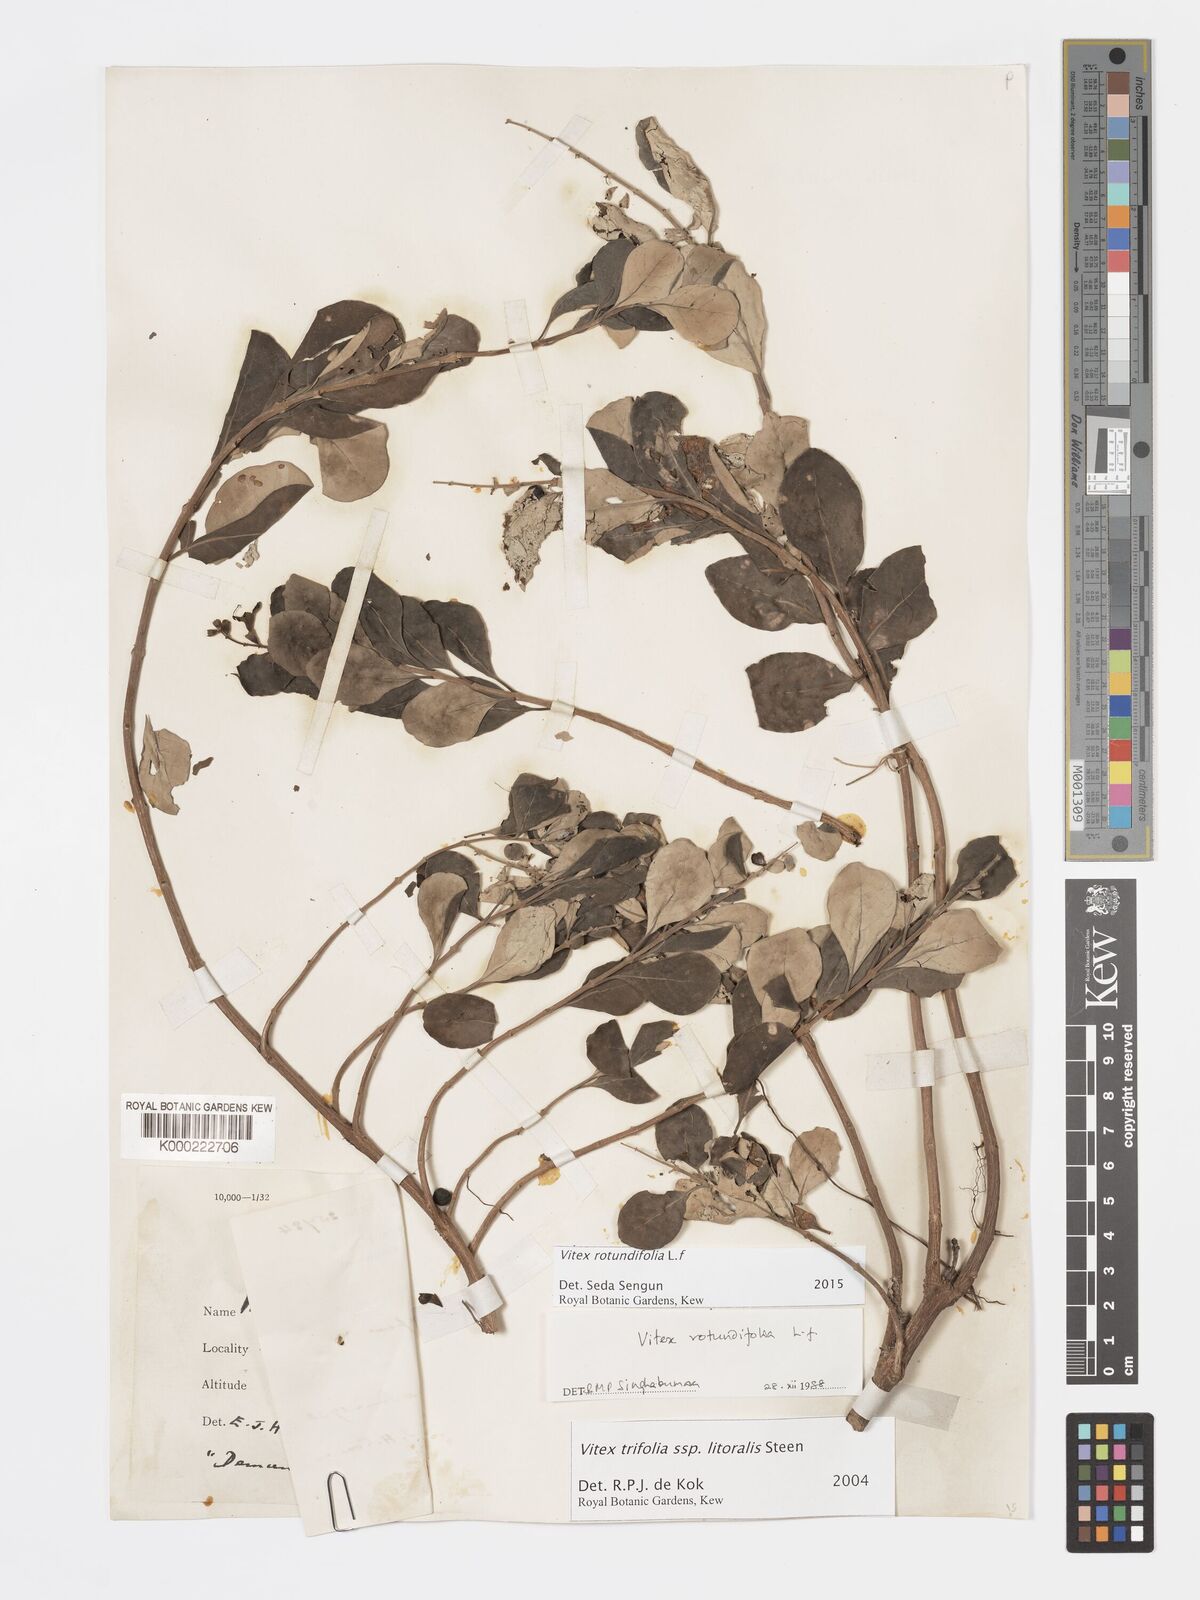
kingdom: Plantae
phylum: Tracheophyta
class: Magnoliopsida
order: Lamiales
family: Lamiaceae
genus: Vitex
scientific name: Vitex rotundifolia
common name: Beach vitex
